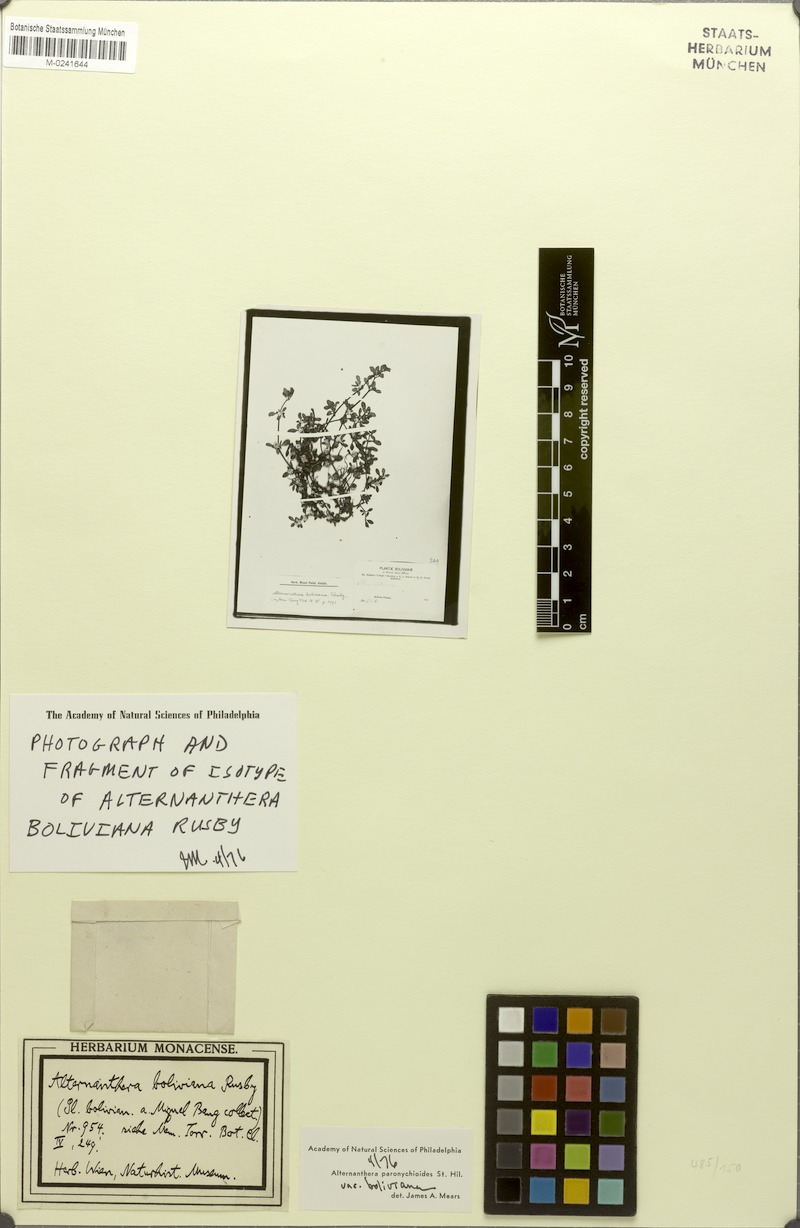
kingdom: Plantae
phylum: Tracheophyta
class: Magnoliopsida
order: Caryophyllales
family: Amaranthaceae
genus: Alternanthera
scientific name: Alternanthera paronychioides
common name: Smooth joyweed
